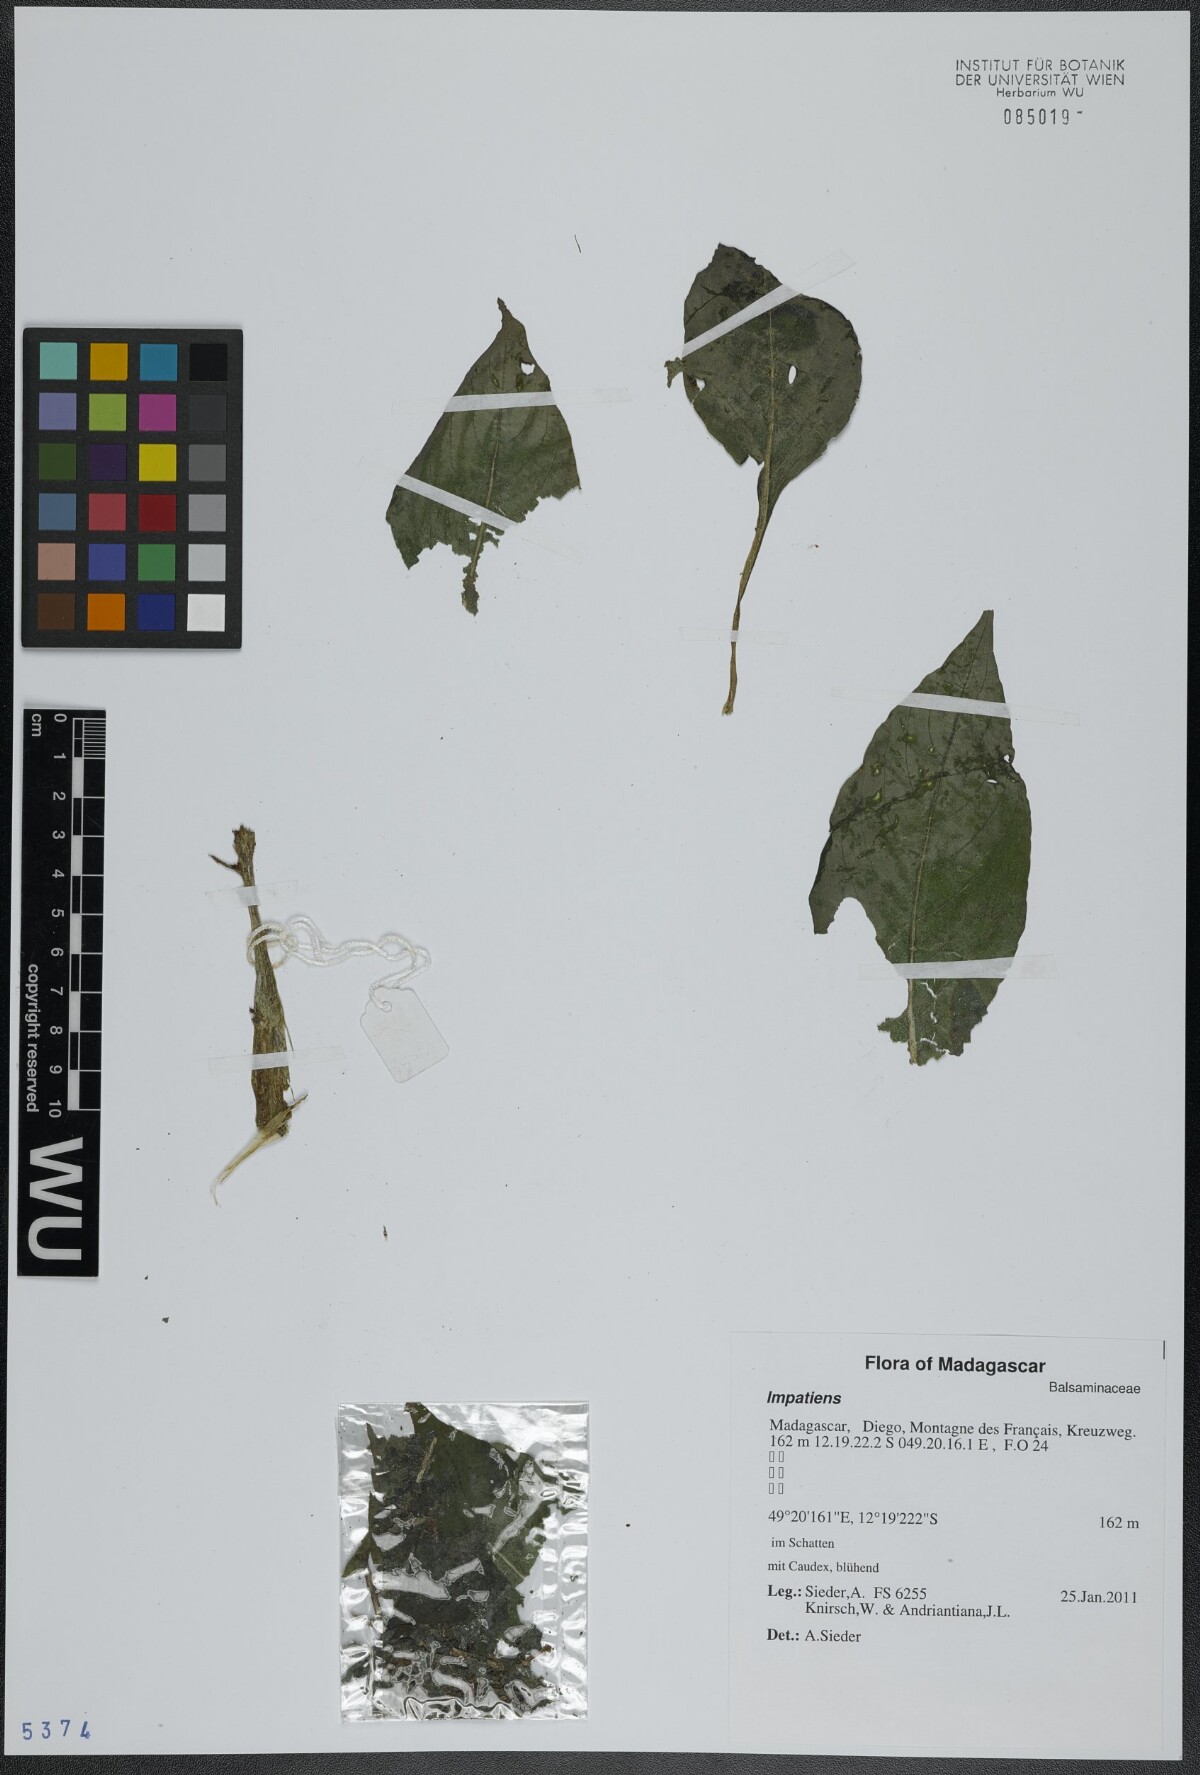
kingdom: Plantae
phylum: Tracheophyta
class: Magnoliopsida
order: Ericales
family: Balsaminaceae
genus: Impatiens
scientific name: Impatiens
